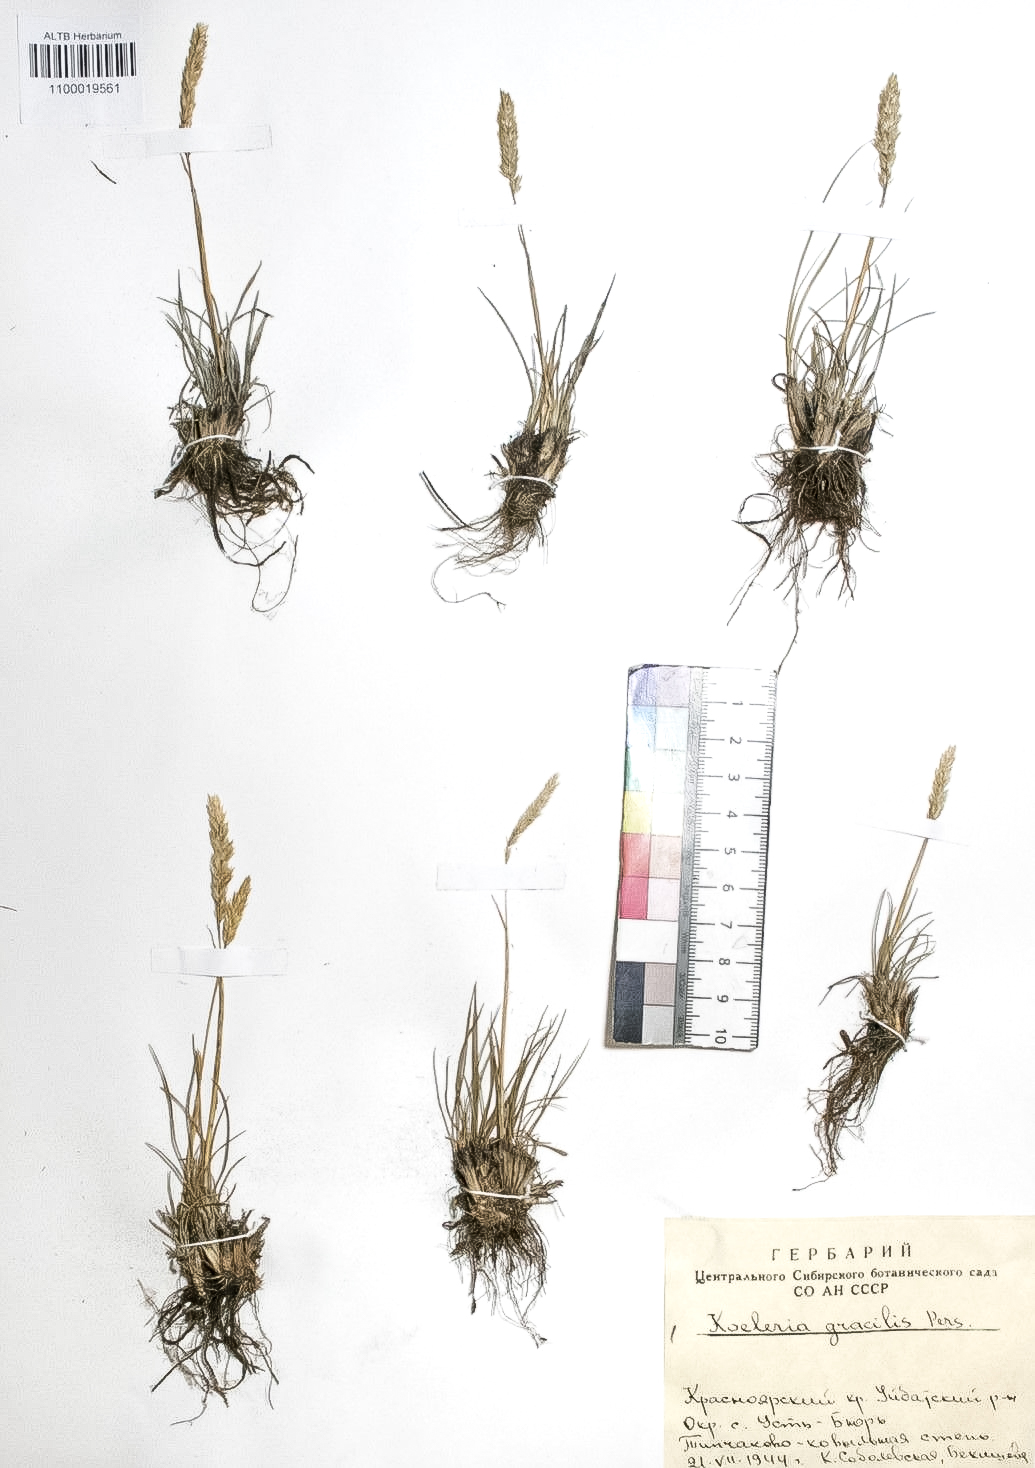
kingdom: Plantae
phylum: Tracheophyta
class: Liliopsida
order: Poales
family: Poaceae
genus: Koeleria
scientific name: Koeleria macrantha
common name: Crested hair-grass
